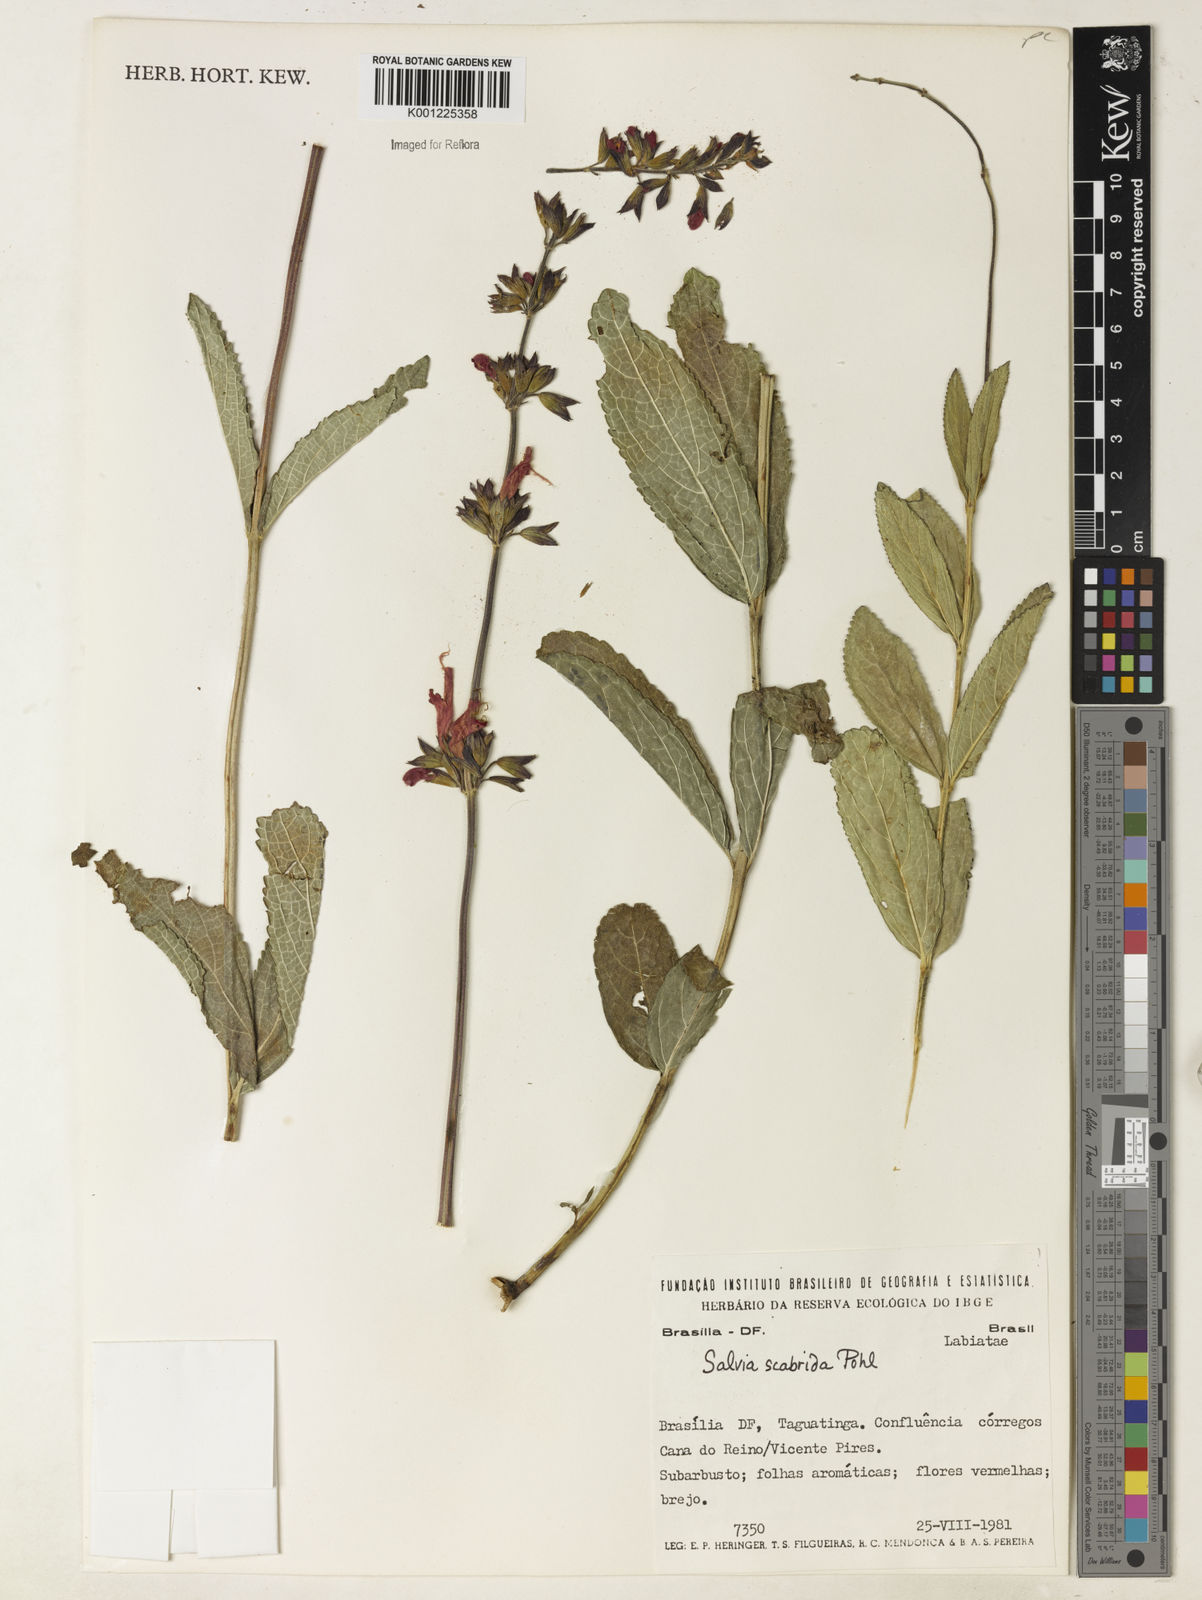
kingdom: Plantae
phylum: Tracheophyta
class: Magnoliopsida
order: Lamiales
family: Lamiaceae
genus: Salvia
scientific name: Salvia scabrida
